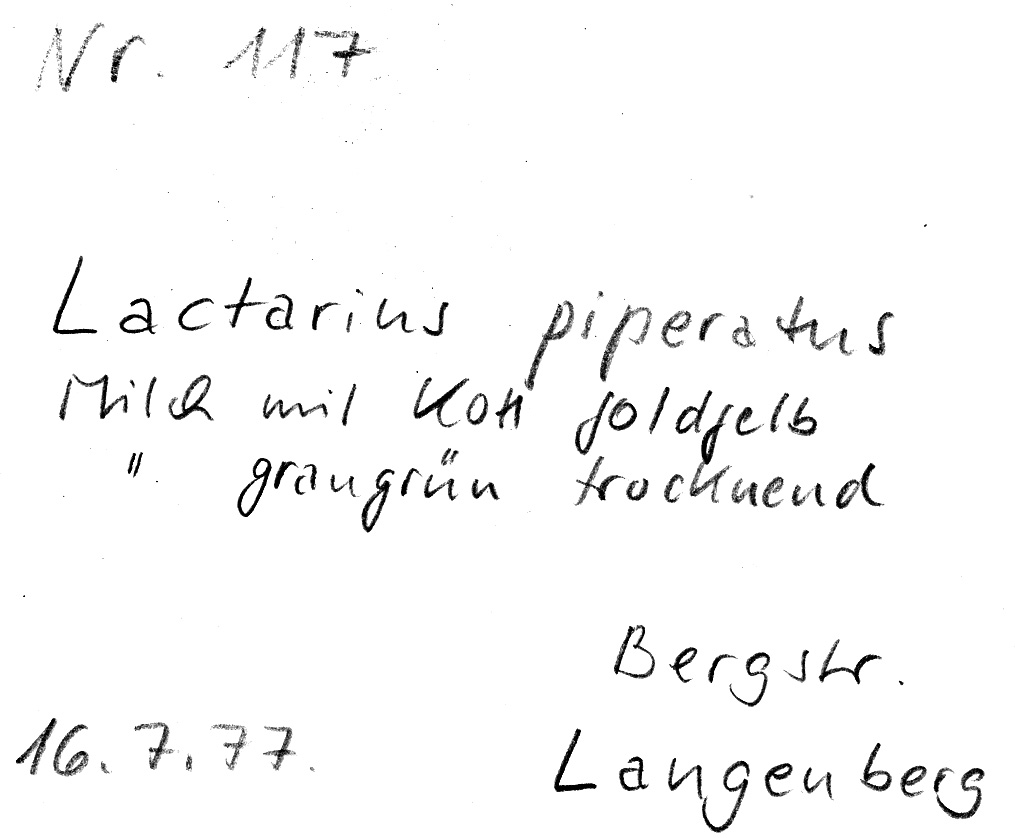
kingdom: Fungi
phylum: Basidiomycota
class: Agaricomycetes
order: Russulales
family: Russulaceae
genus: Lactifluus
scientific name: Lactifluus piperatus
